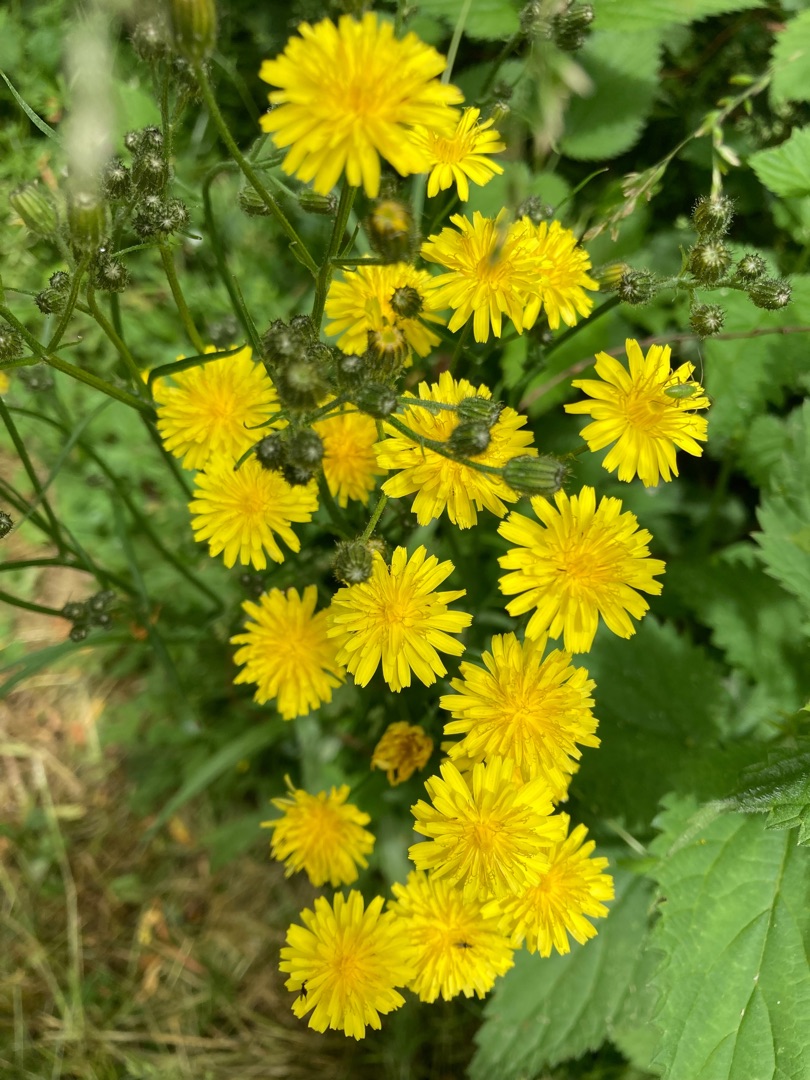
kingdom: Plantae
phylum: Tracheophyta
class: Magnoliopsida
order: Asterales
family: Asteraceae
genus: Crepis
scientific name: Crepis capillaris
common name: Grøn høgeskæg
